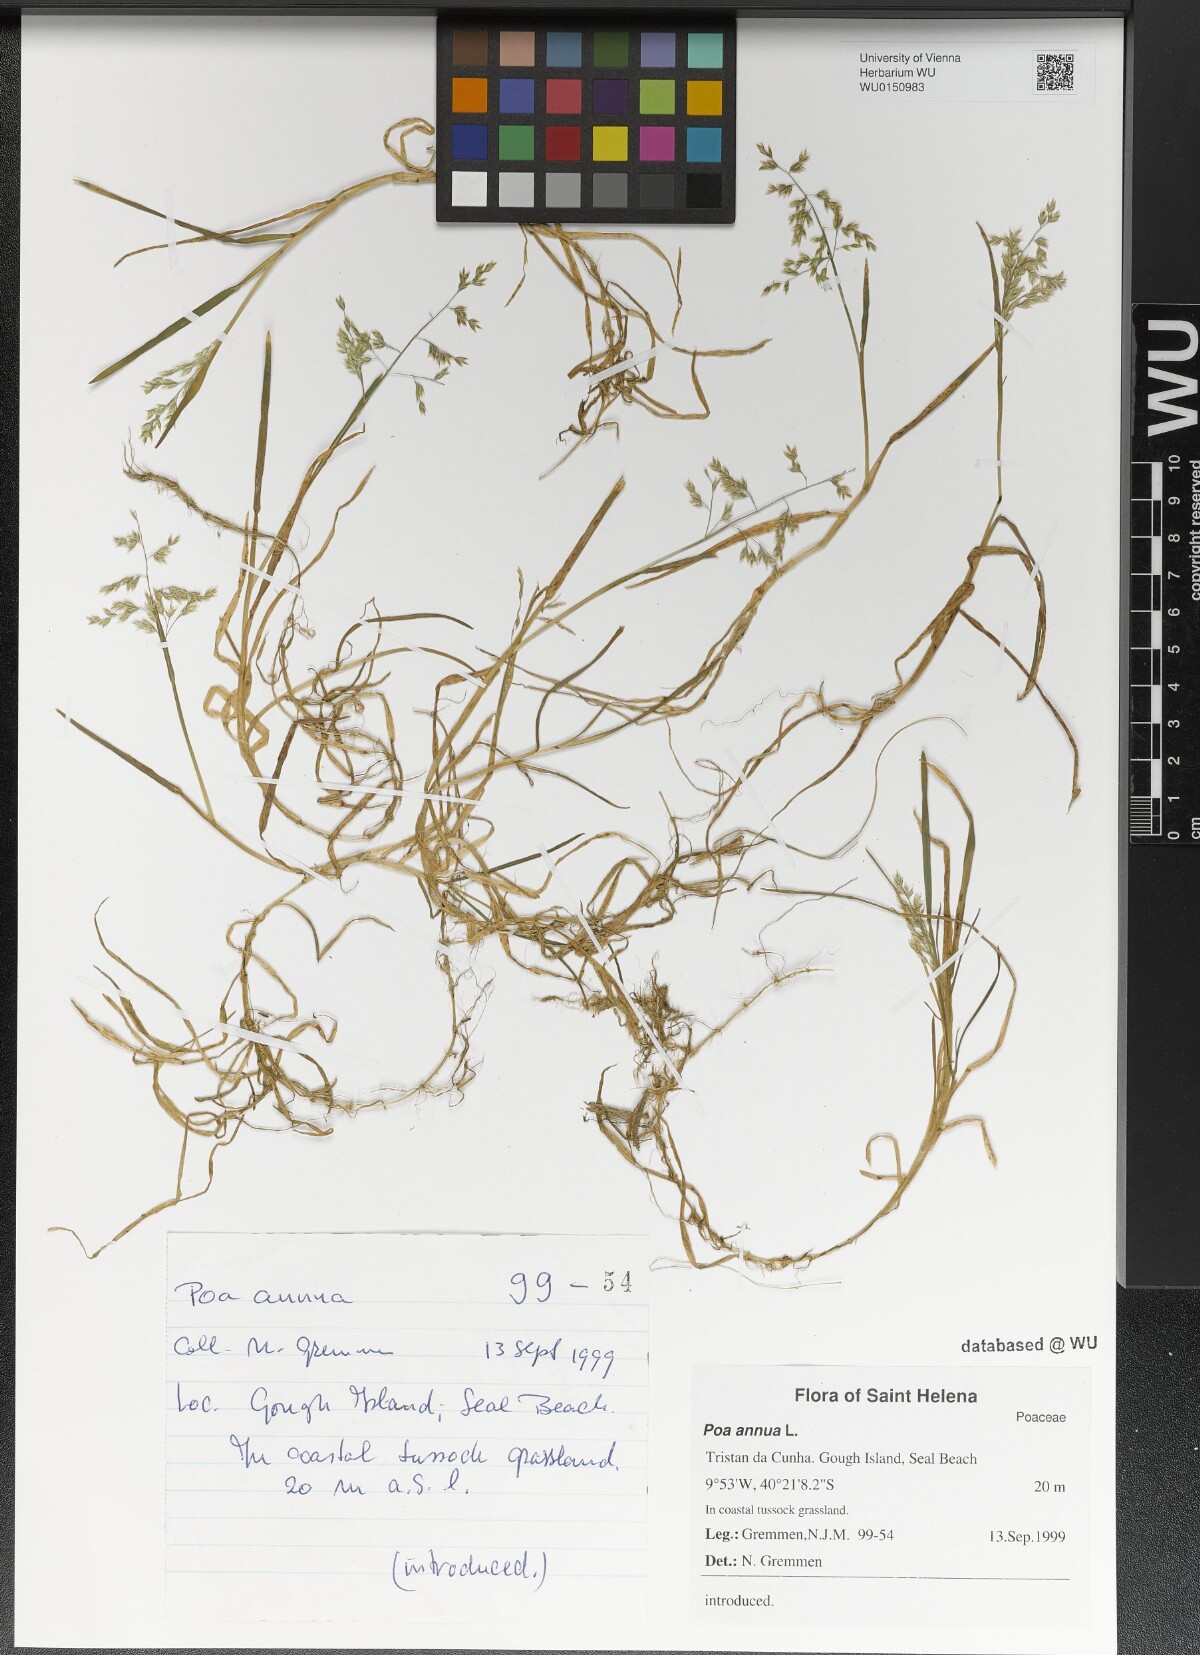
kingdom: Plantae
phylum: Tracheophyta
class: Liliopsida
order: Poales
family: Poaceae
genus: Poa
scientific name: Poa annua
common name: Annual bluegrass
